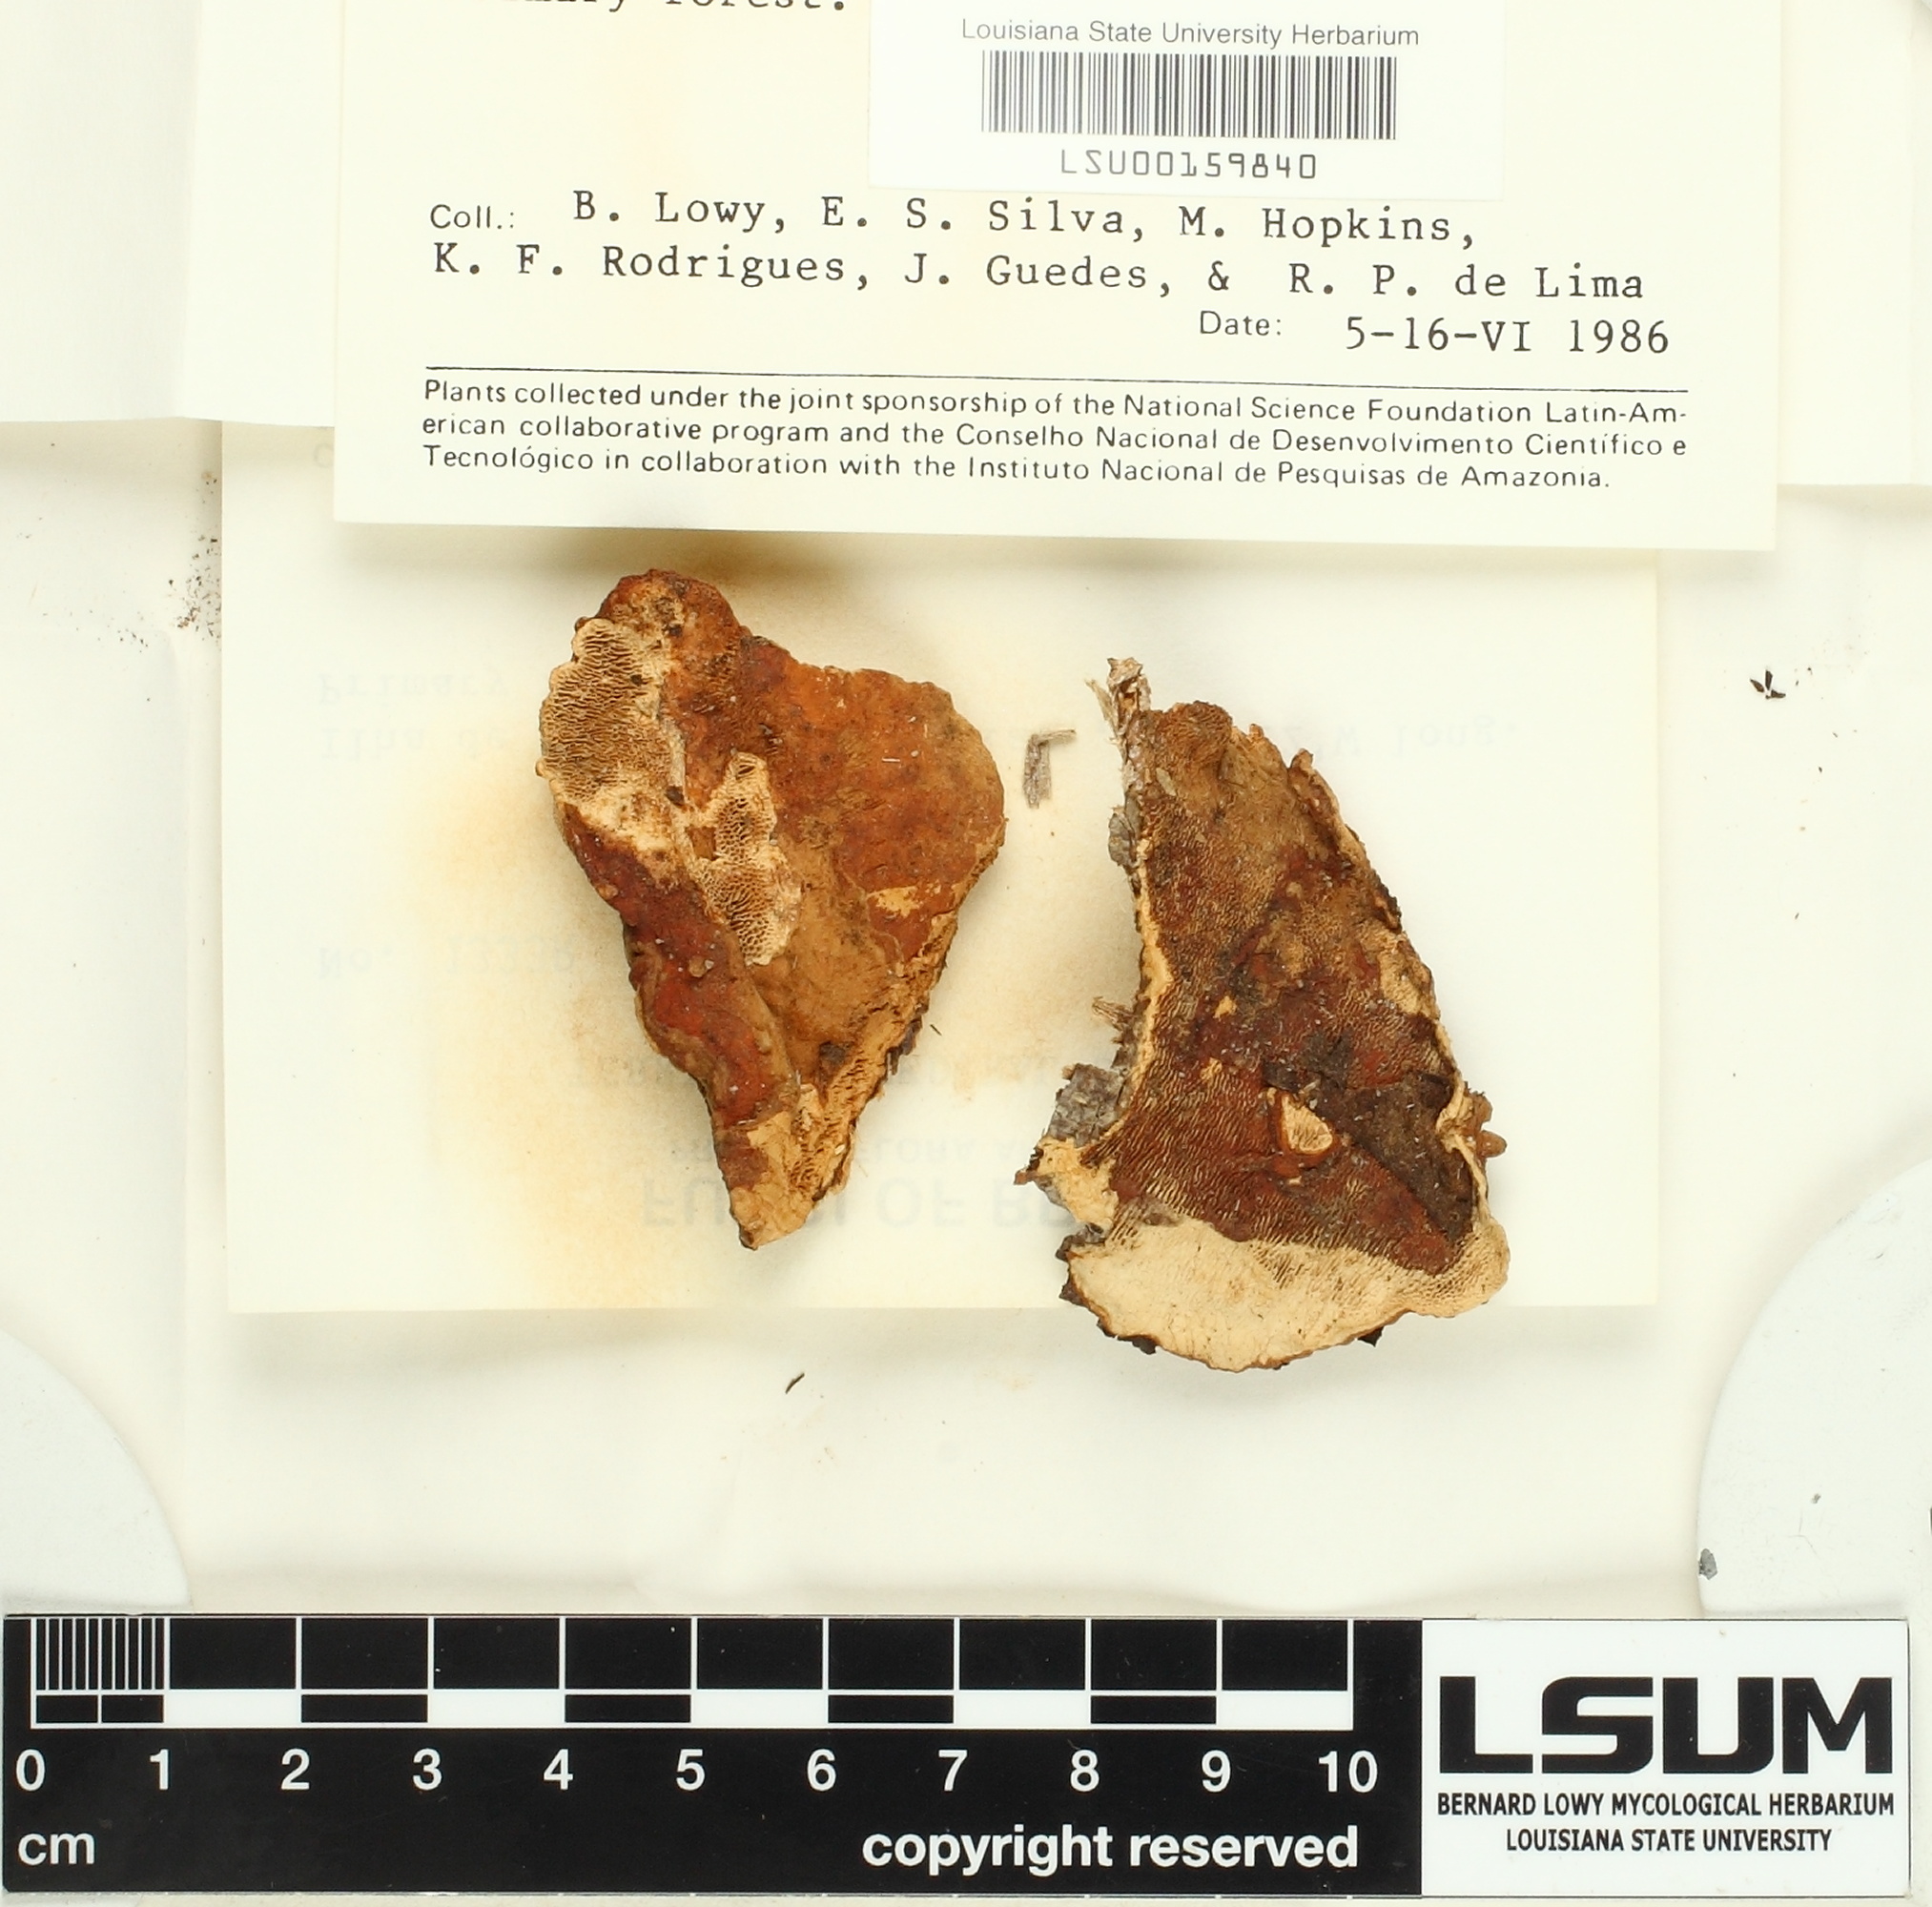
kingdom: Fungi
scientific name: Fungi
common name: Fungi
